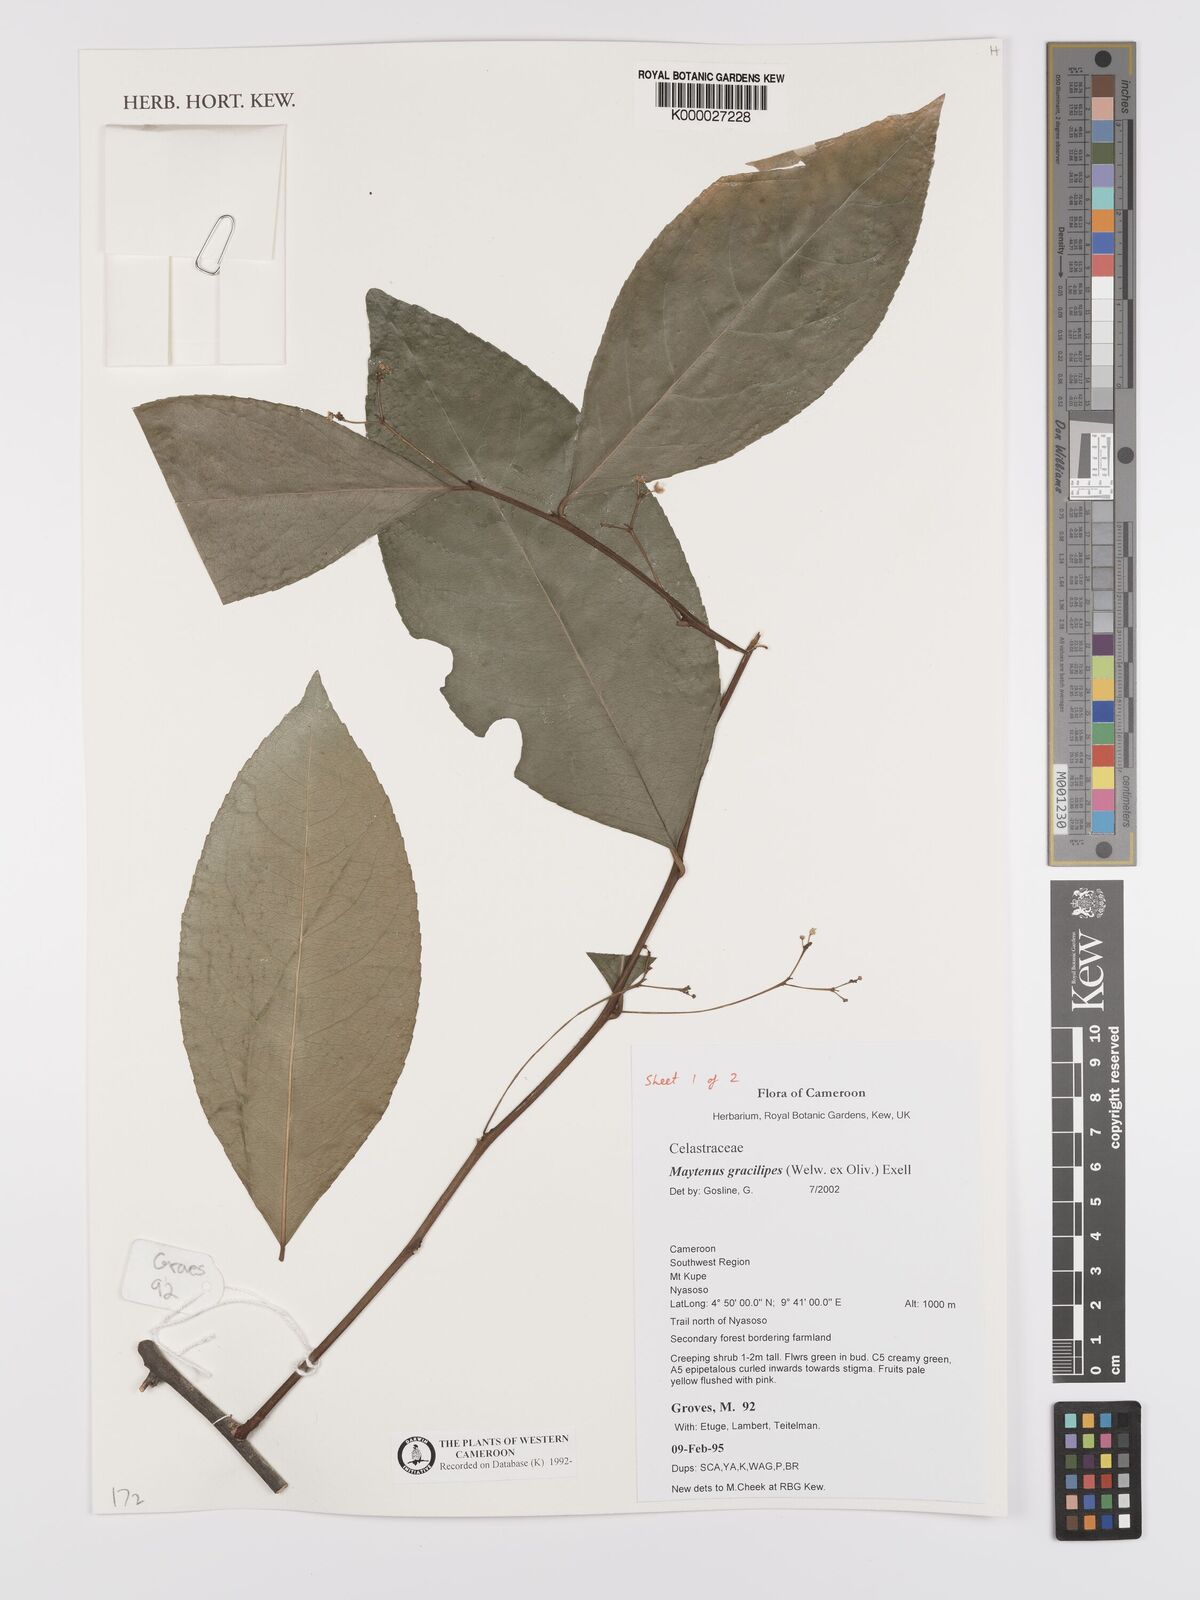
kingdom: Plantae
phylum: Tracheophyta
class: Magnoliopsida
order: Celastrales
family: Celastraceae
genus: Gymnosporia
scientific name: Gymnosporia gracilipes
